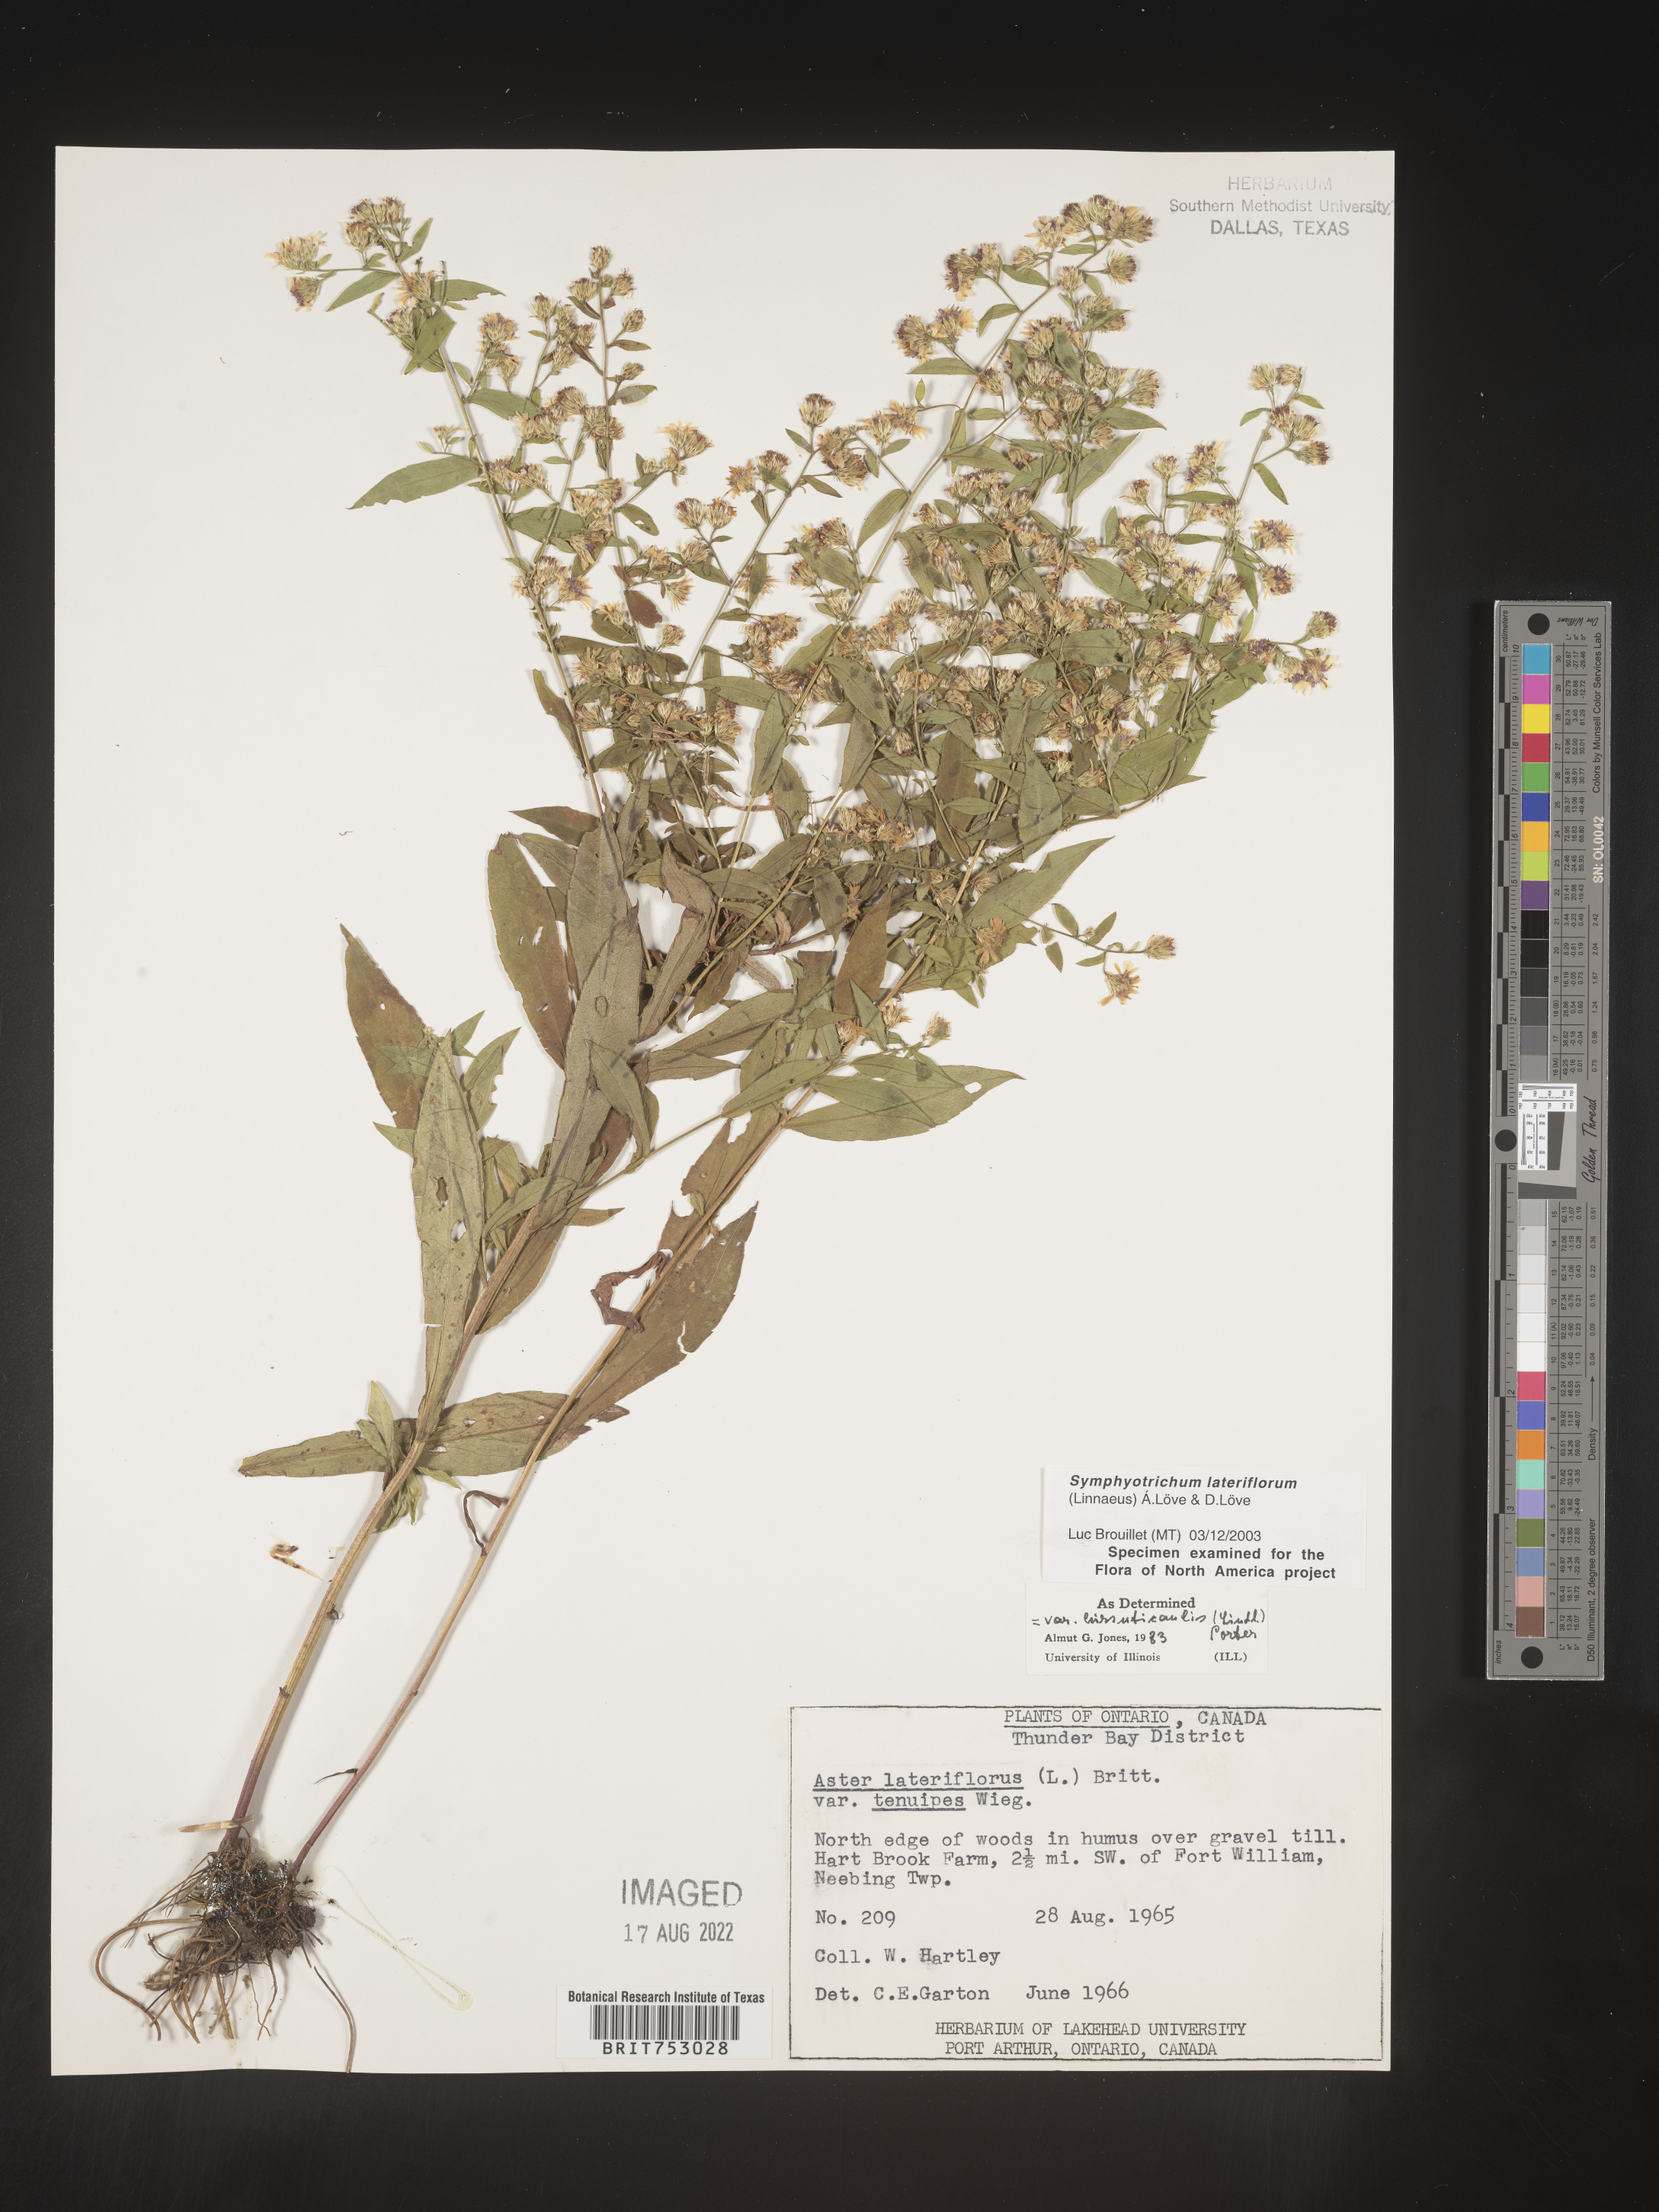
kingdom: Plantae
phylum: Tracheophyta
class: Magnoliopsida
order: Asterales
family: Asteraceae
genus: Symphyotrichum
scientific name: Symphyotrichum lateriflorum
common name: Calico aster
